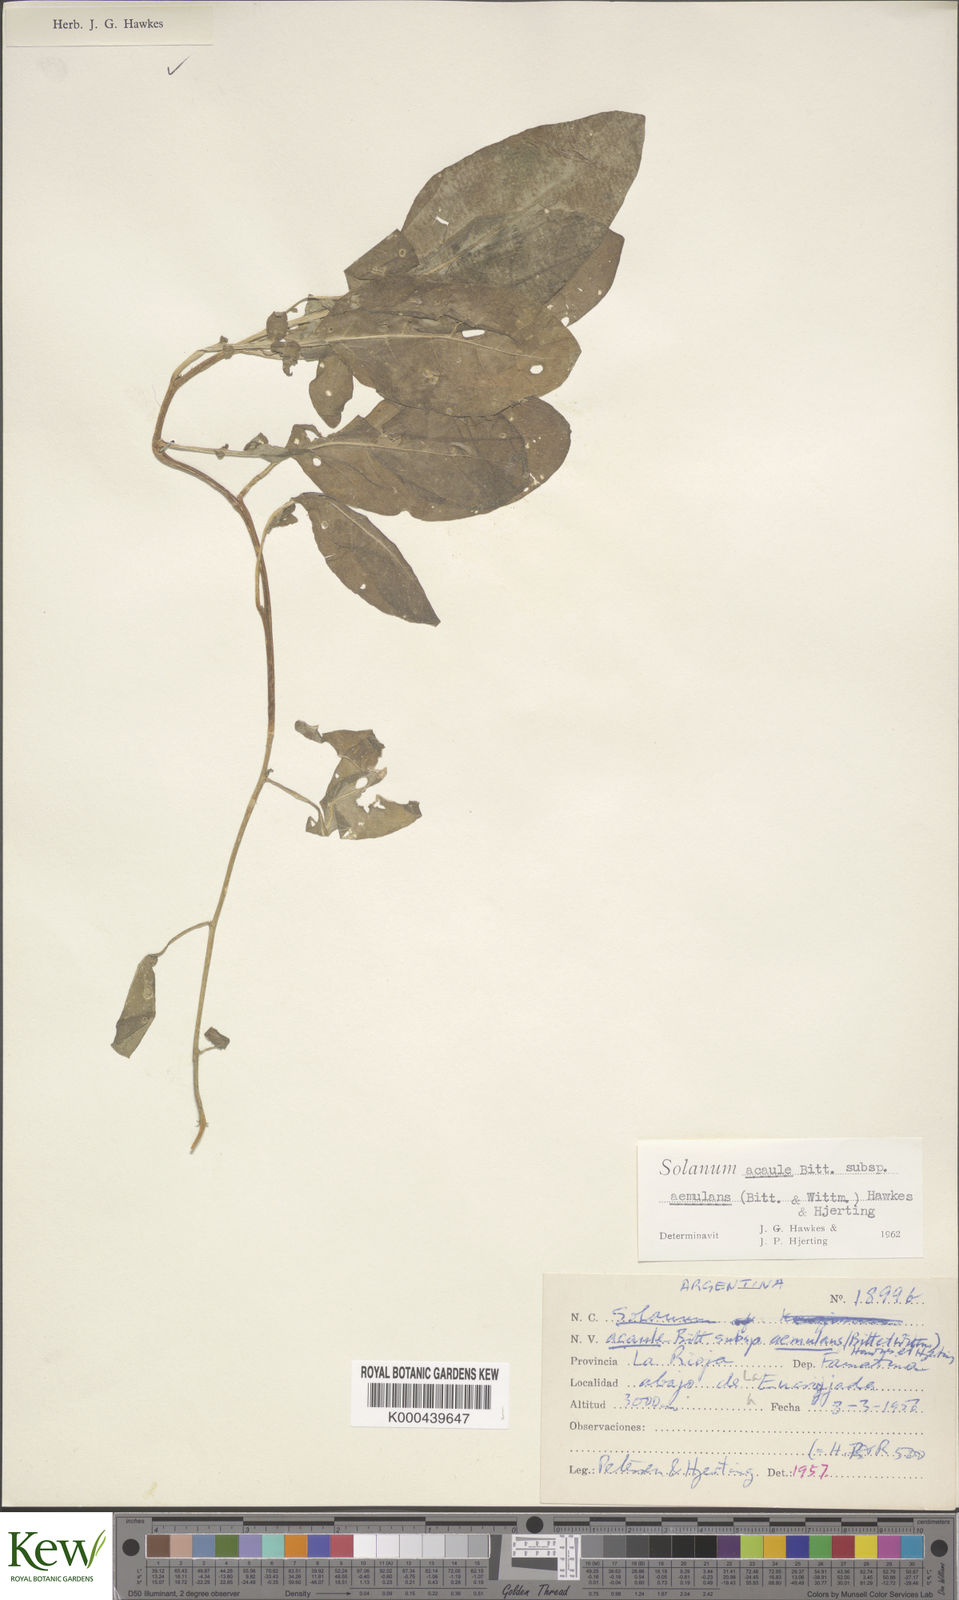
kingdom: Plantae
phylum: Tracheophyta
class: Magnoliopsida
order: Solanales
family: Solanaceae
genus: Solanum
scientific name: Solanum aemulans
